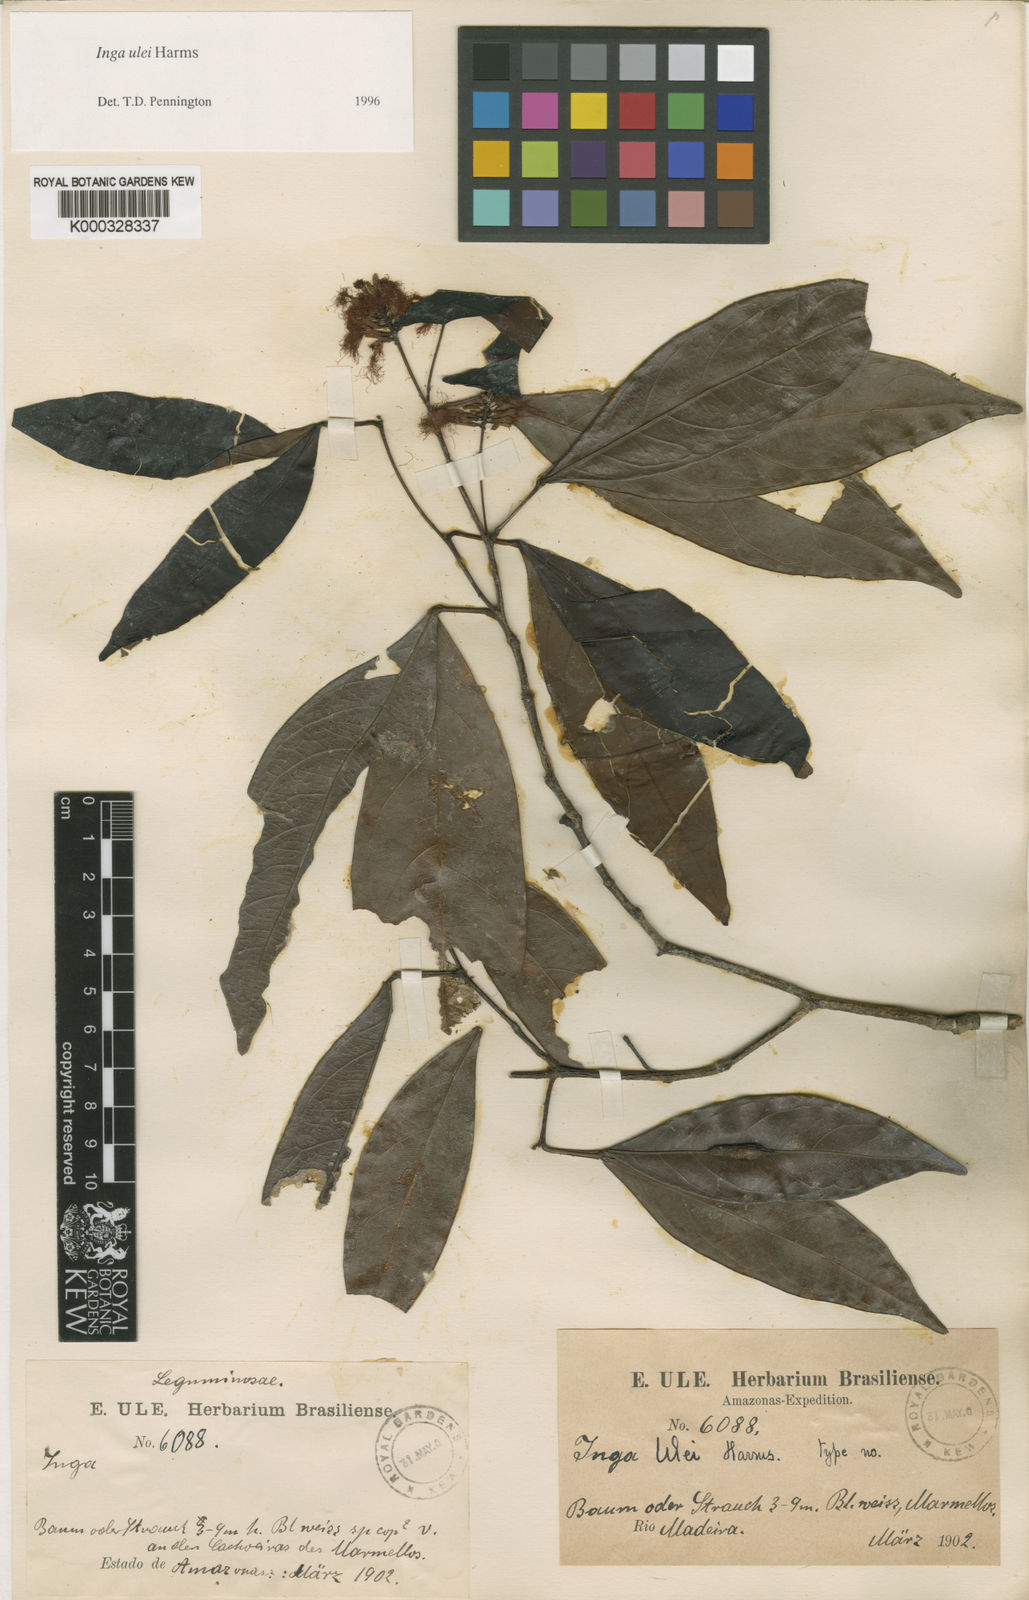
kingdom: Plantae
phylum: Tracheophyta
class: Magnoliopsida
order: Fabales
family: Fabaceae
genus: Inga
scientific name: Inga ulei
